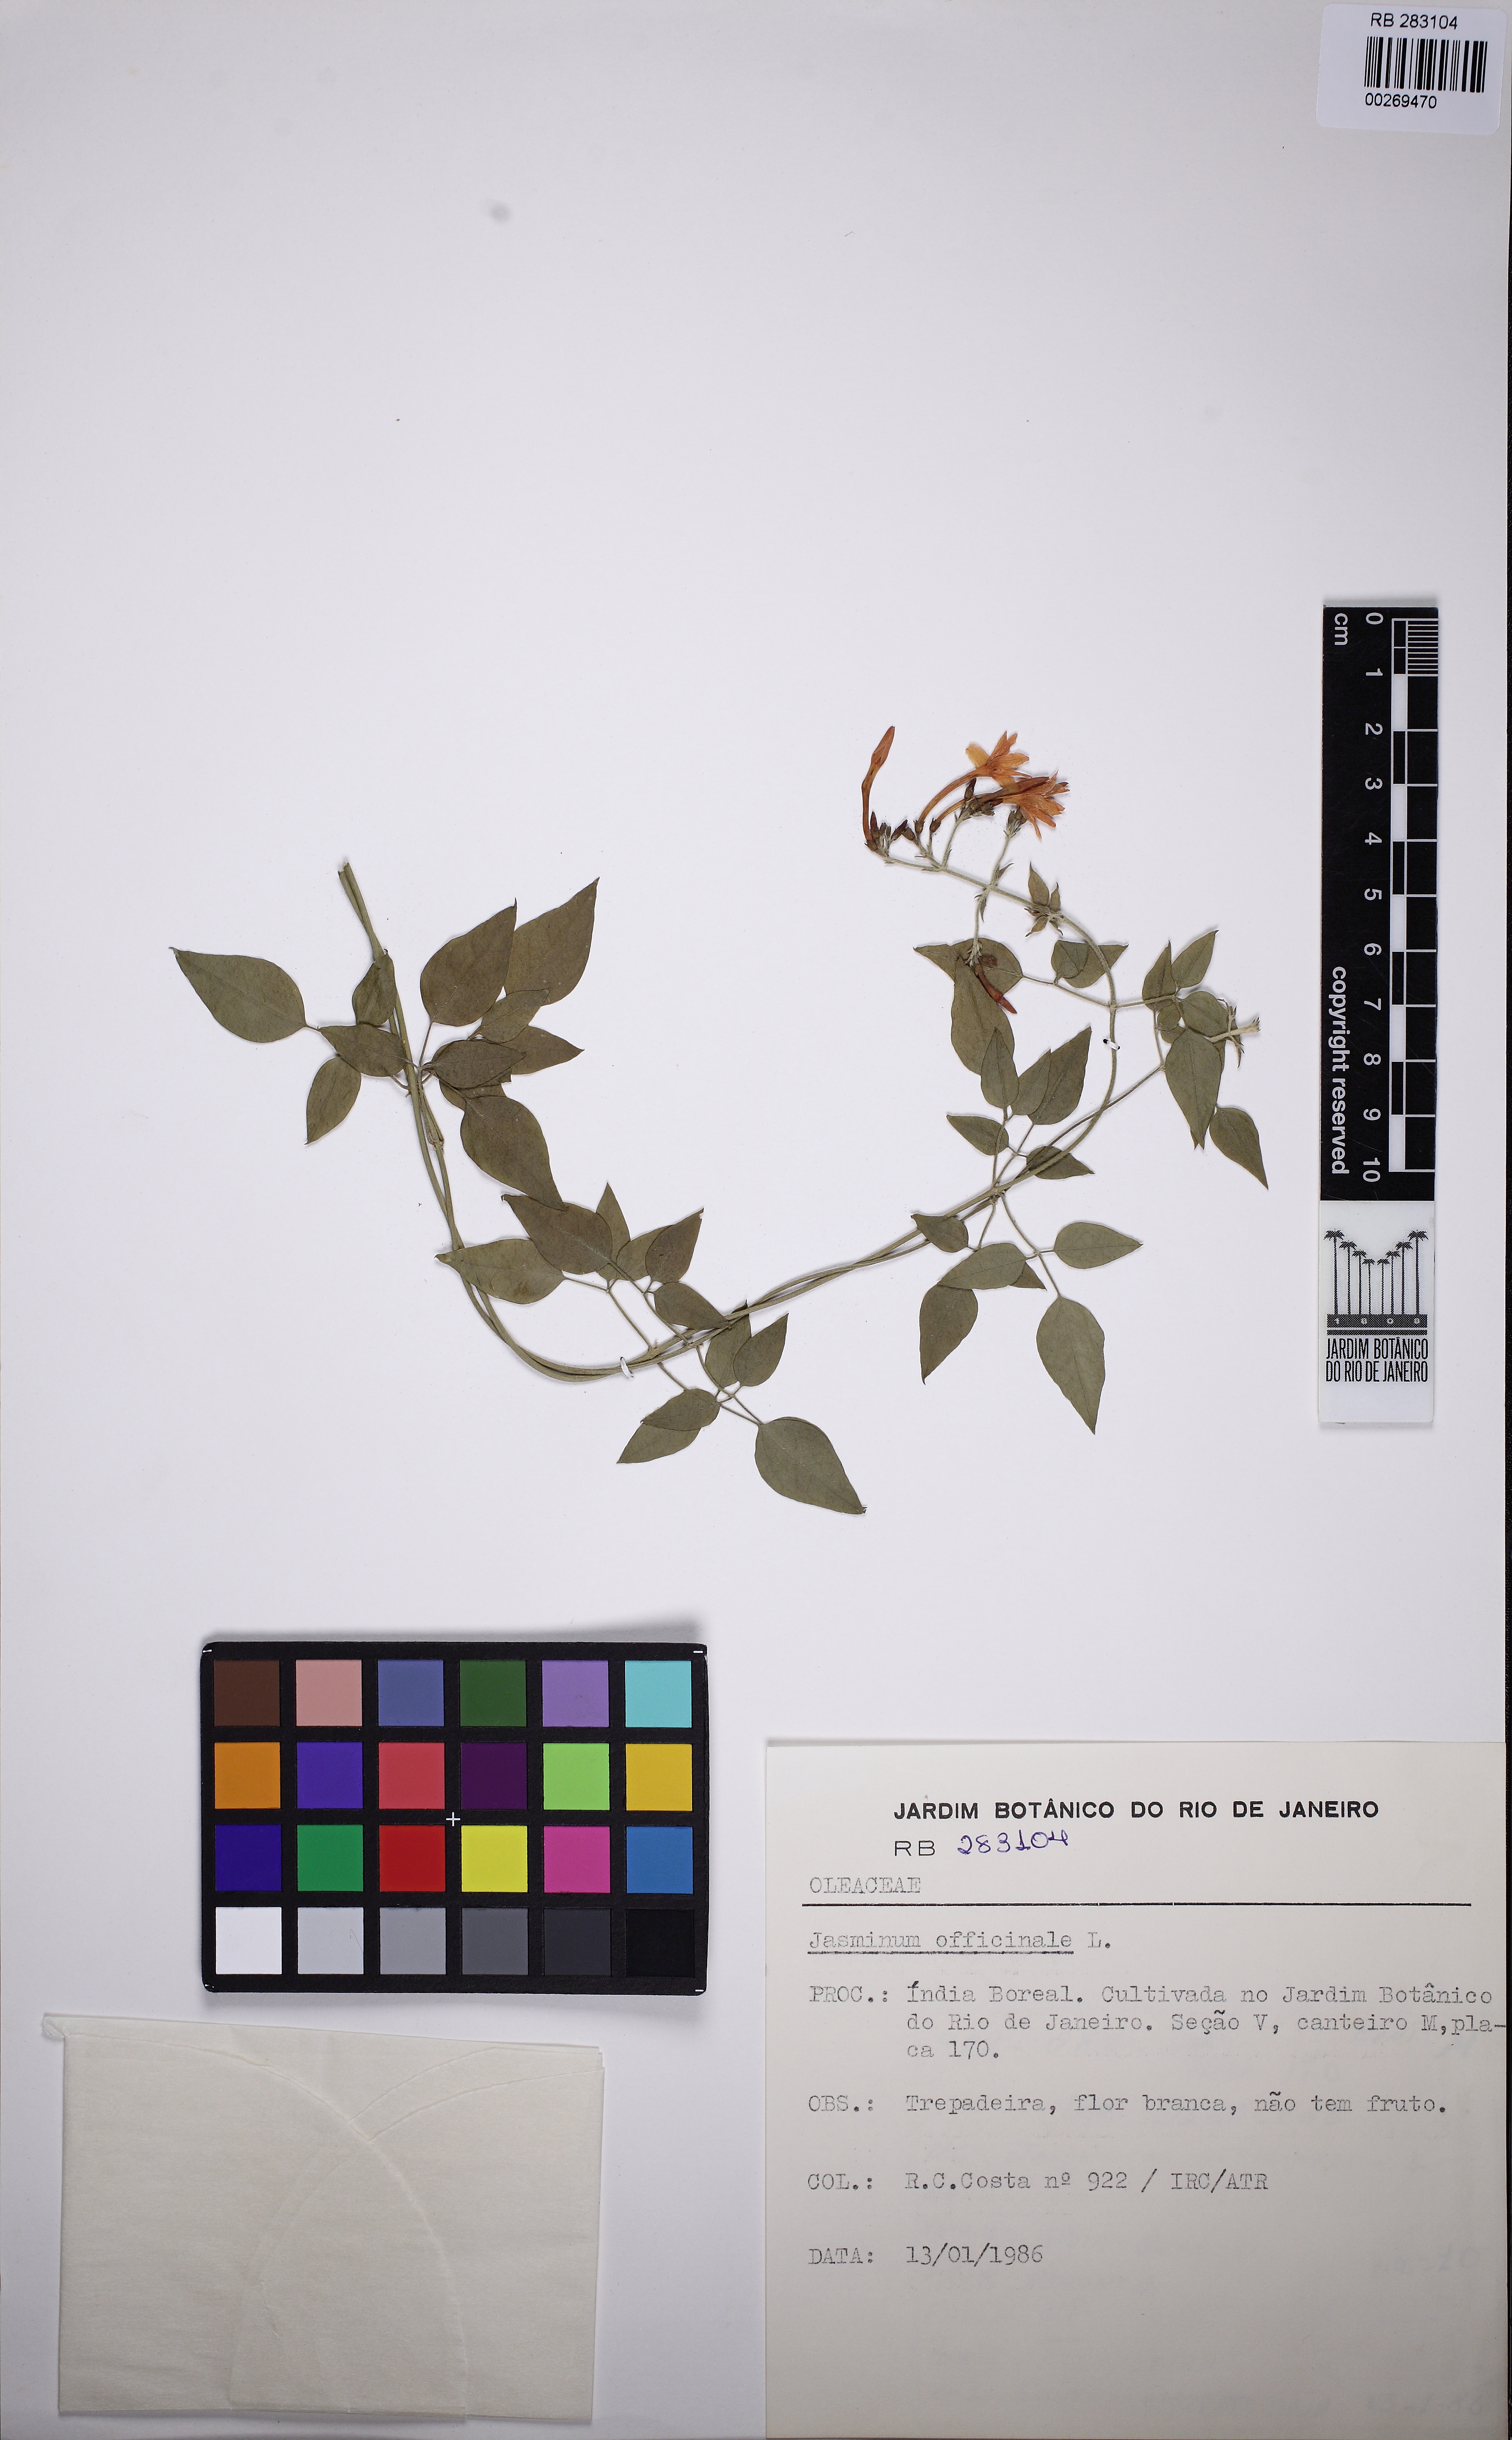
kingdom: Plantae
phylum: Tracheophyta
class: Magnoliopsida
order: Lamiales
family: Oleaceae
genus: Jasminum
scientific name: Jasminum officinale
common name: Summer jasmine
